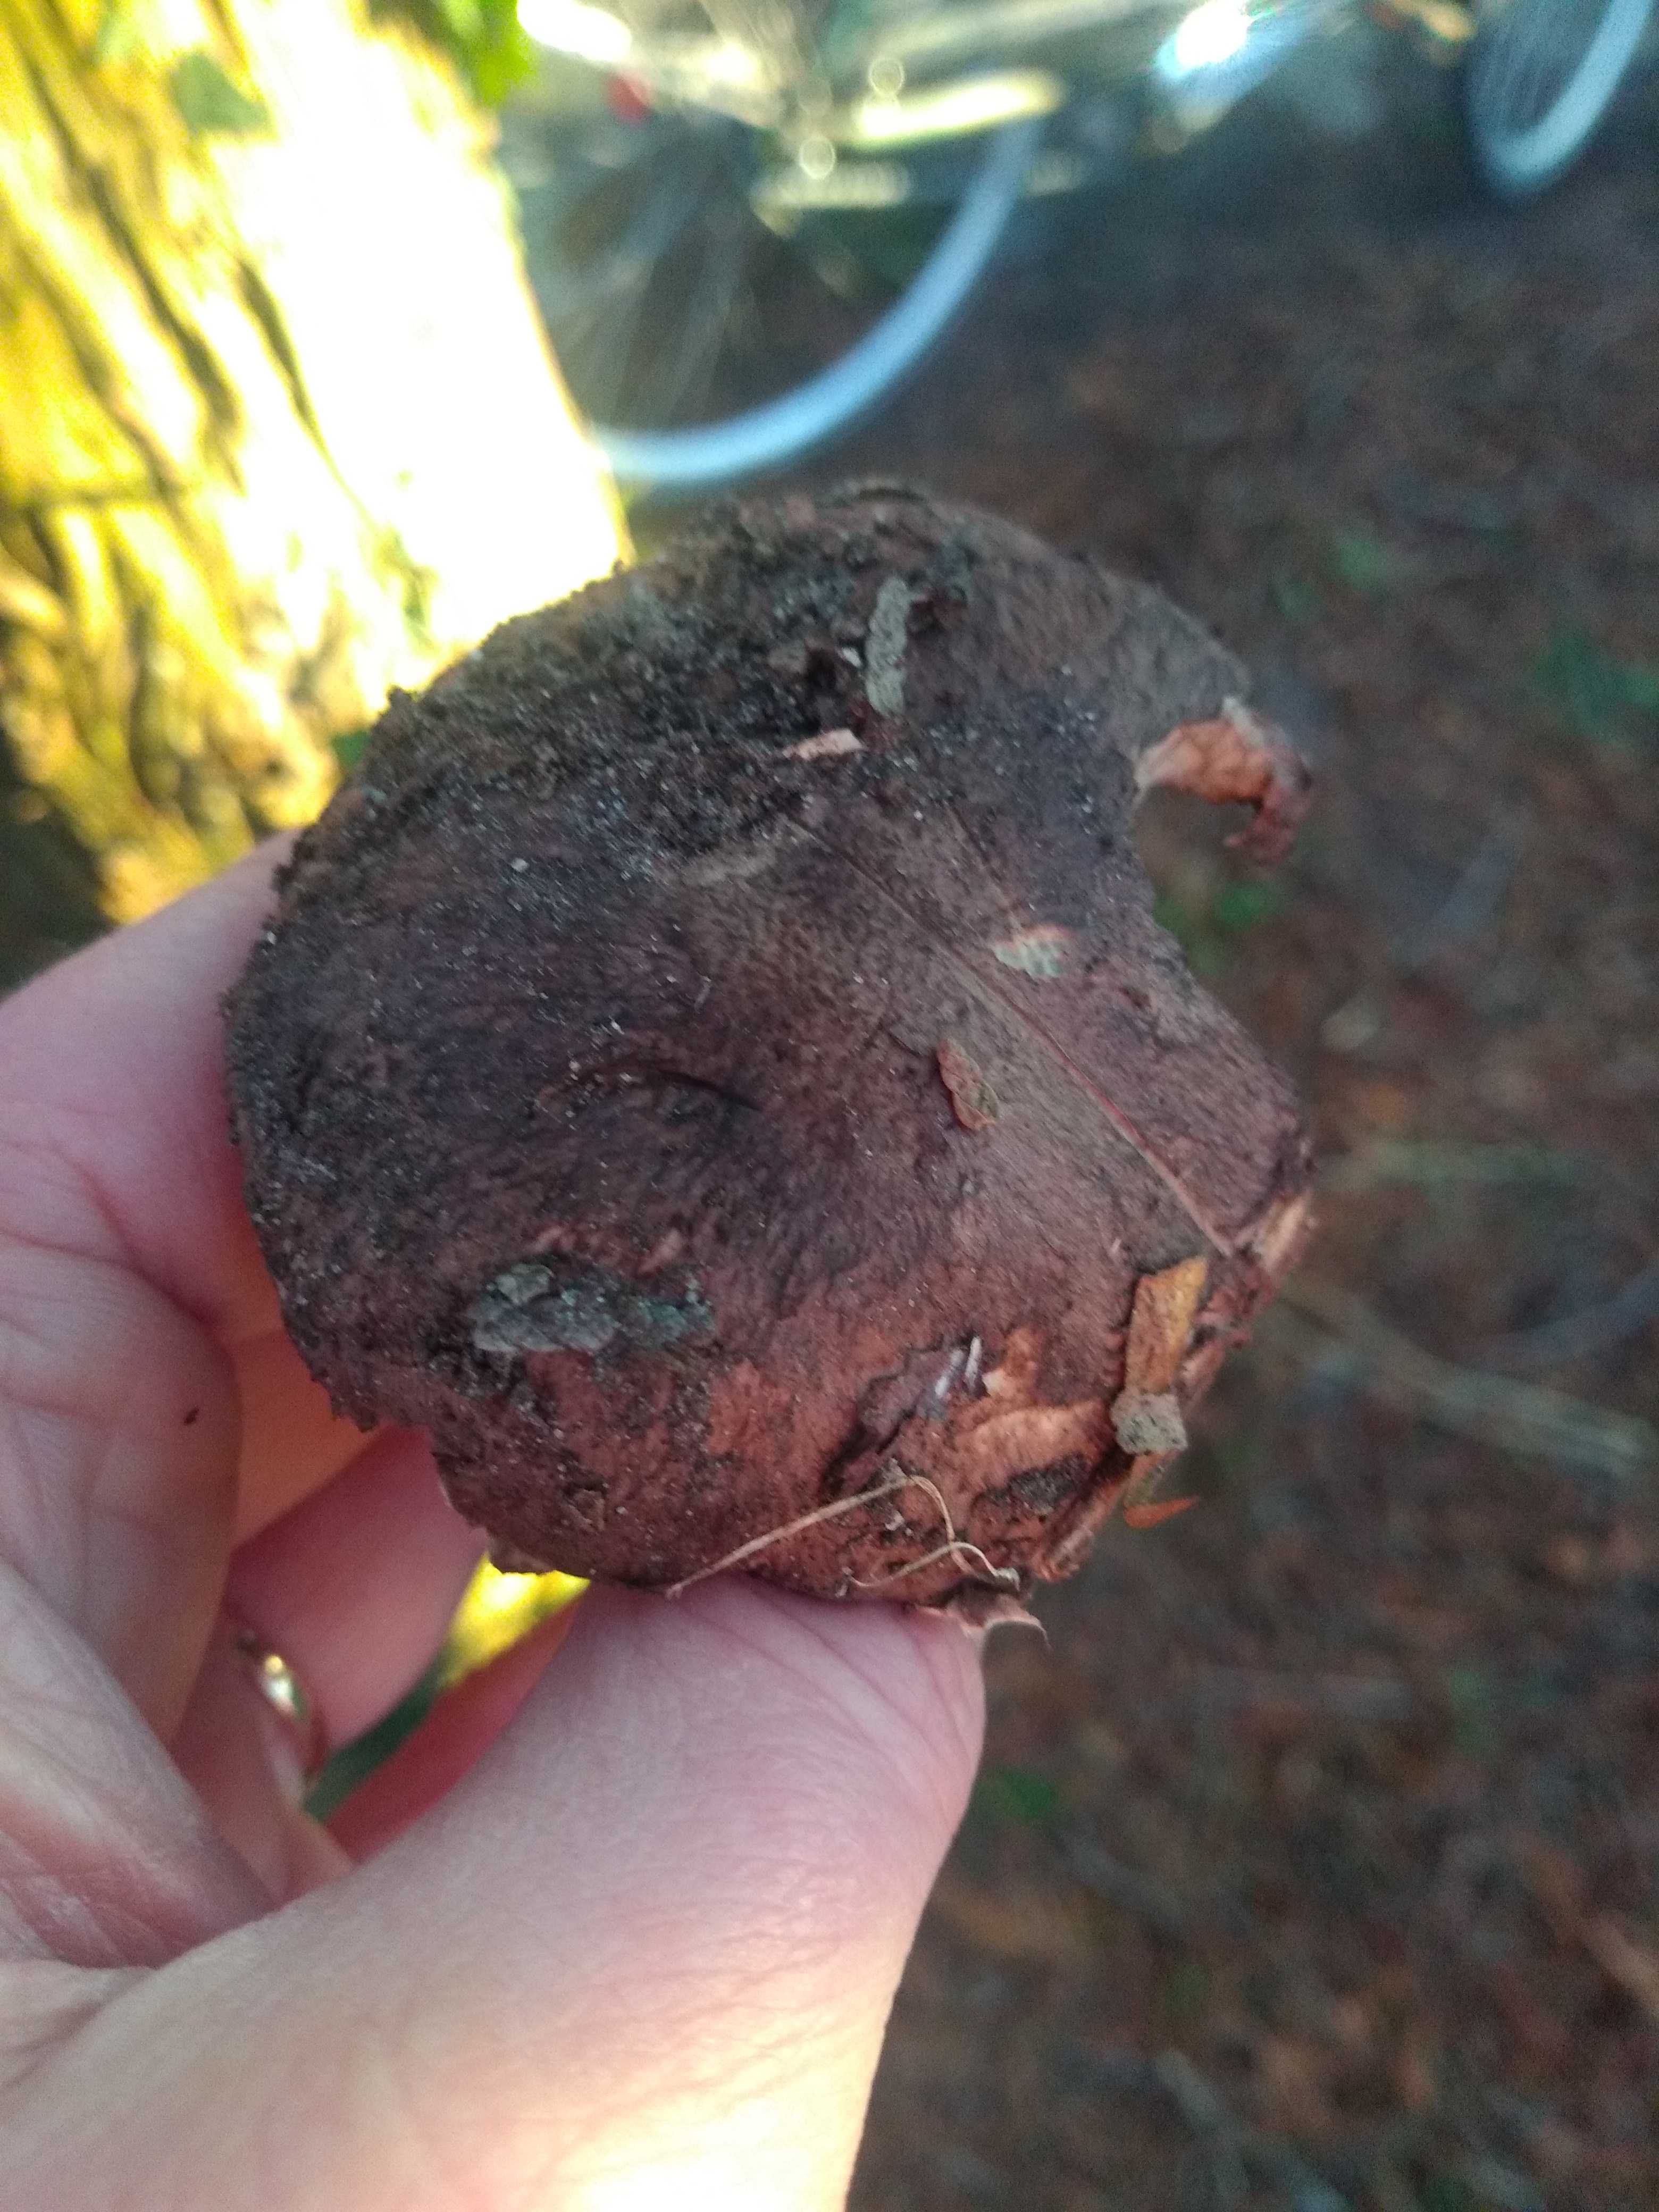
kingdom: Fungi
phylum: Basidiomycota
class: Agaricomycetes
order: Agaricales
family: Agaricaceae
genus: Agaricus
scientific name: Agaricus
